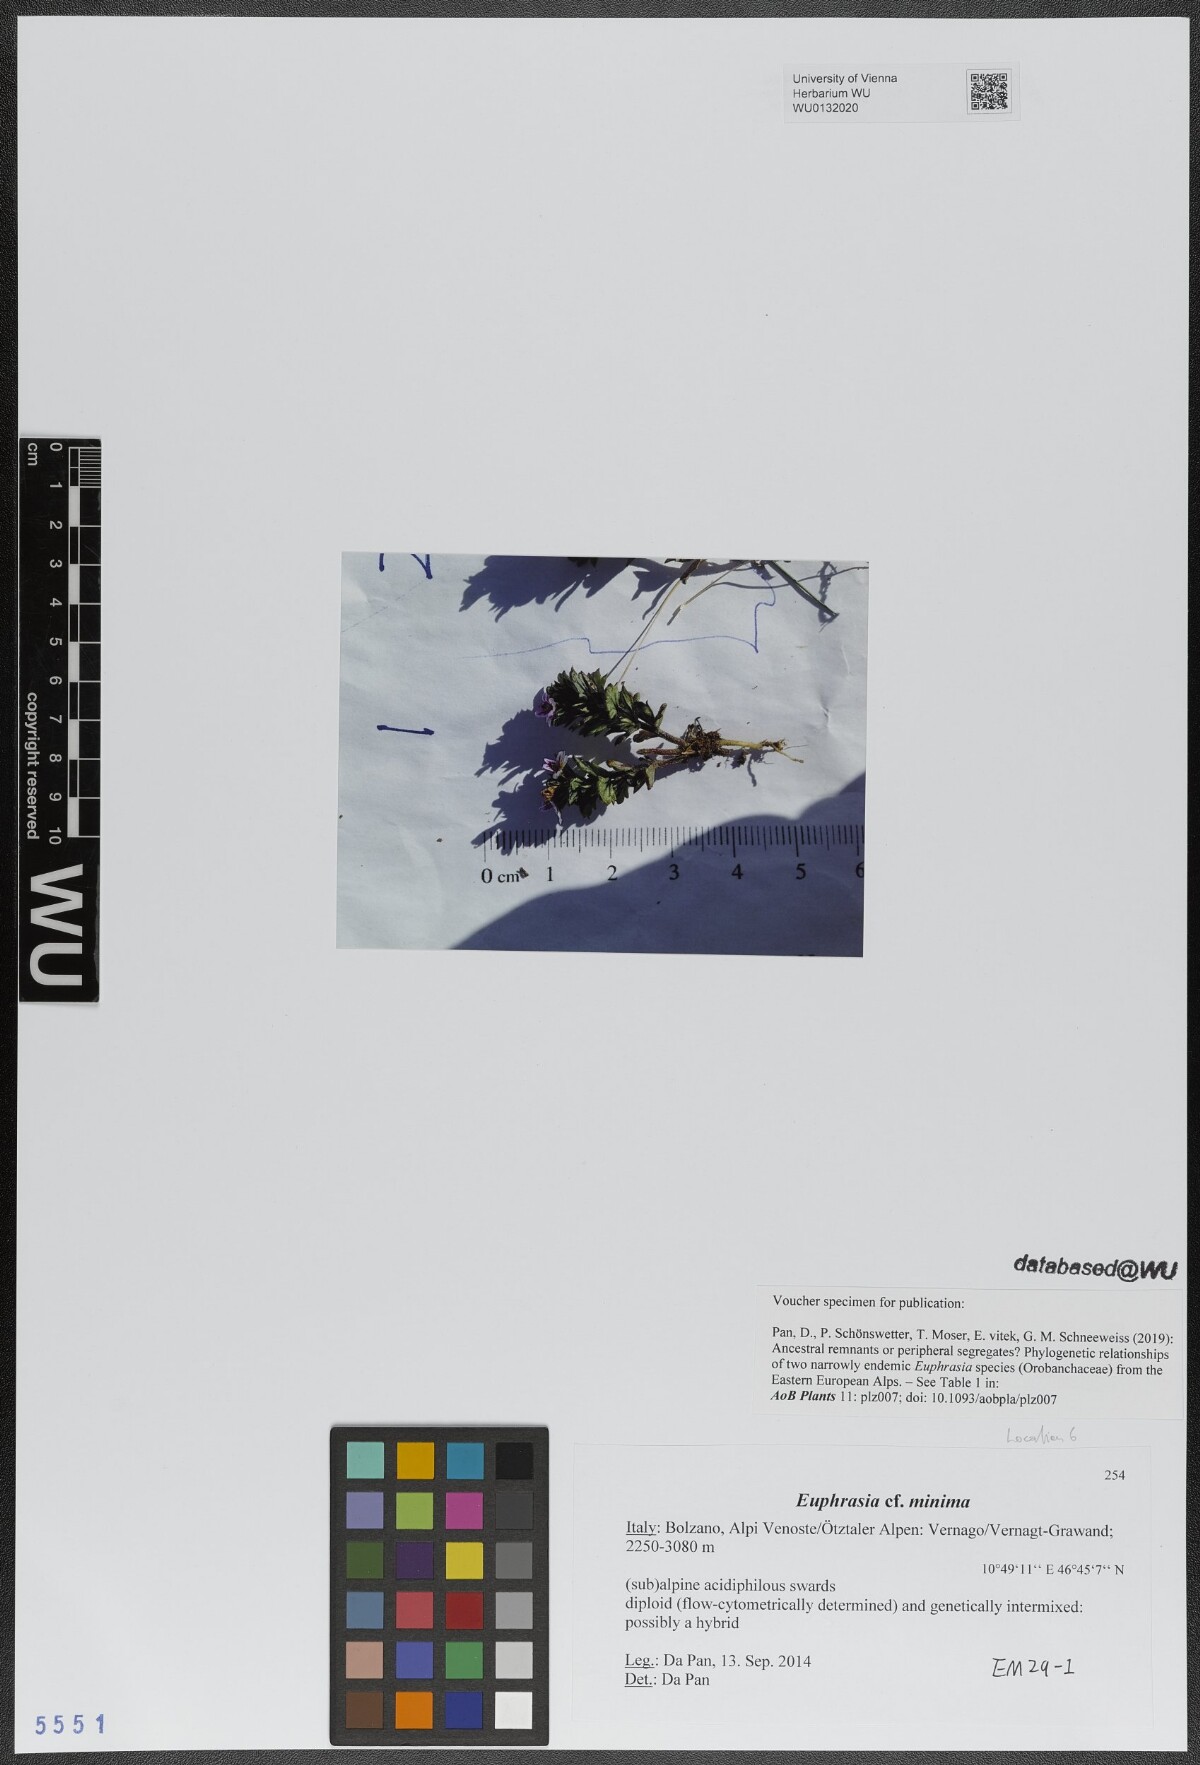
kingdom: Plantae
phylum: Tracheophyta
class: Magnoliopsida
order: Lamiales
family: Orobanchaceae
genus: Euphrasia
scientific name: Euphrasia minima
